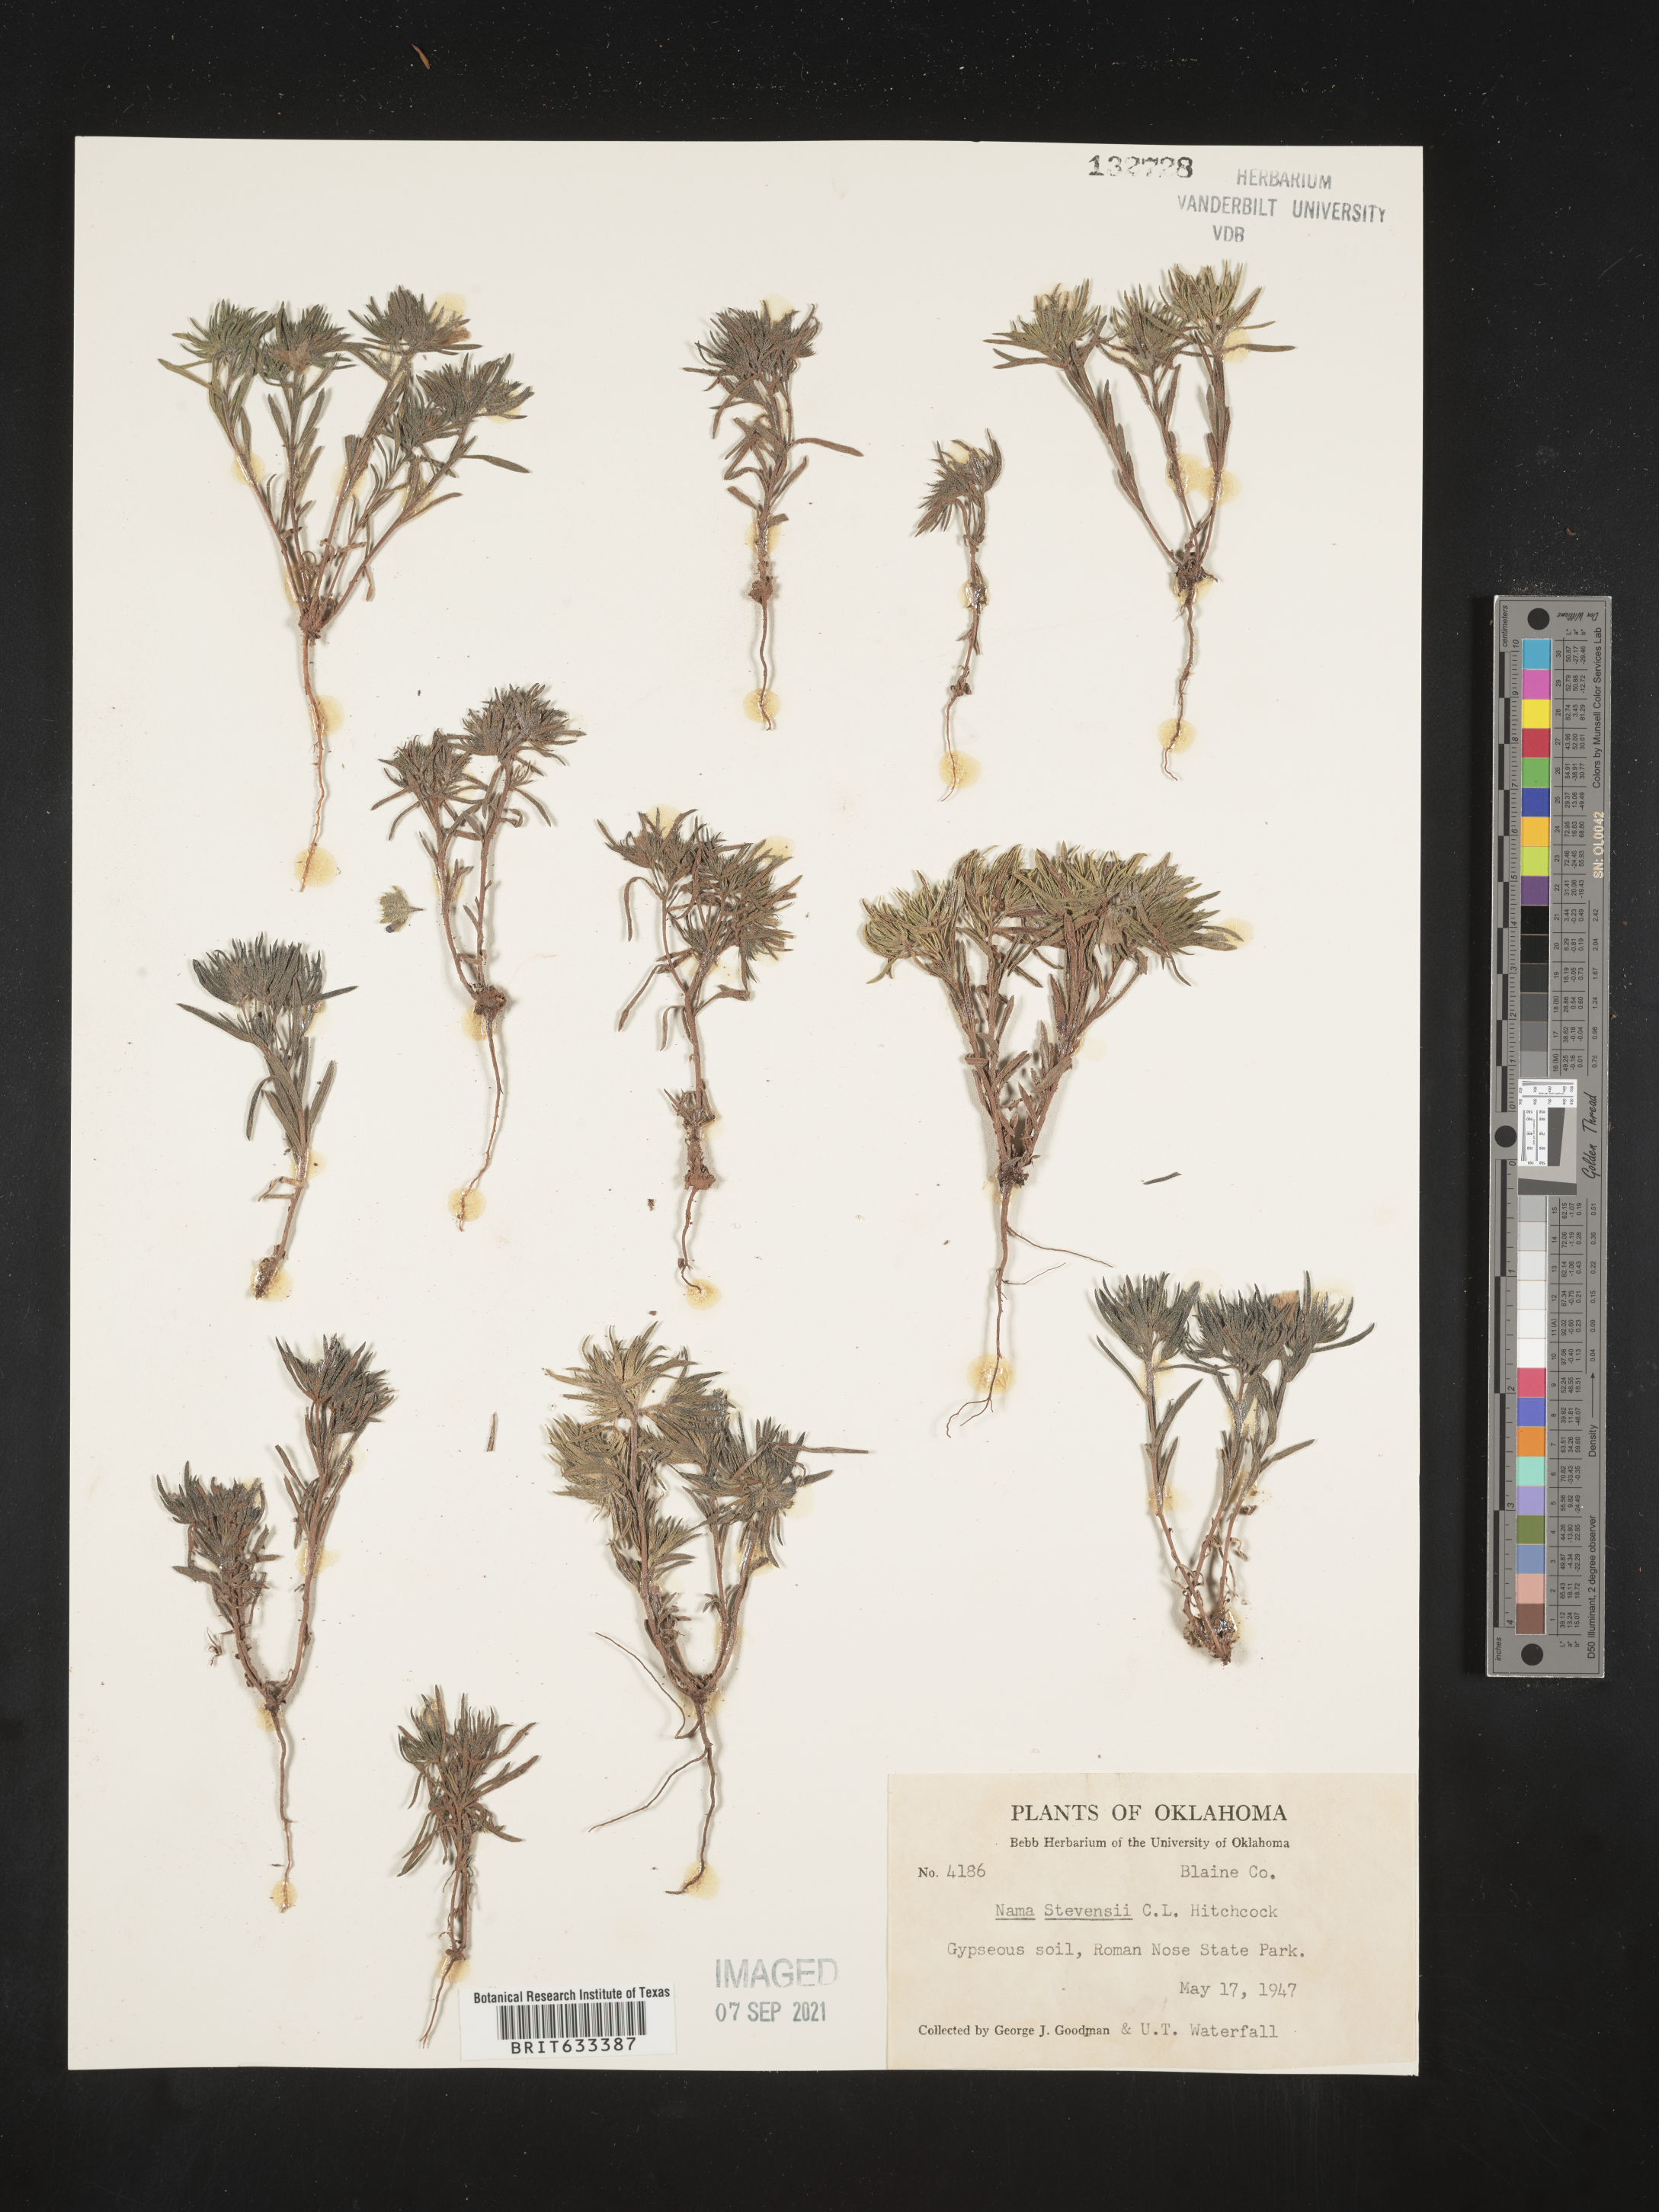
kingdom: Plantae
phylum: Tracheophyta
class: Magnoliopsida
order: Boraginales
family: Namaceae
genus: Nama
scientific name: Nama stevensii
